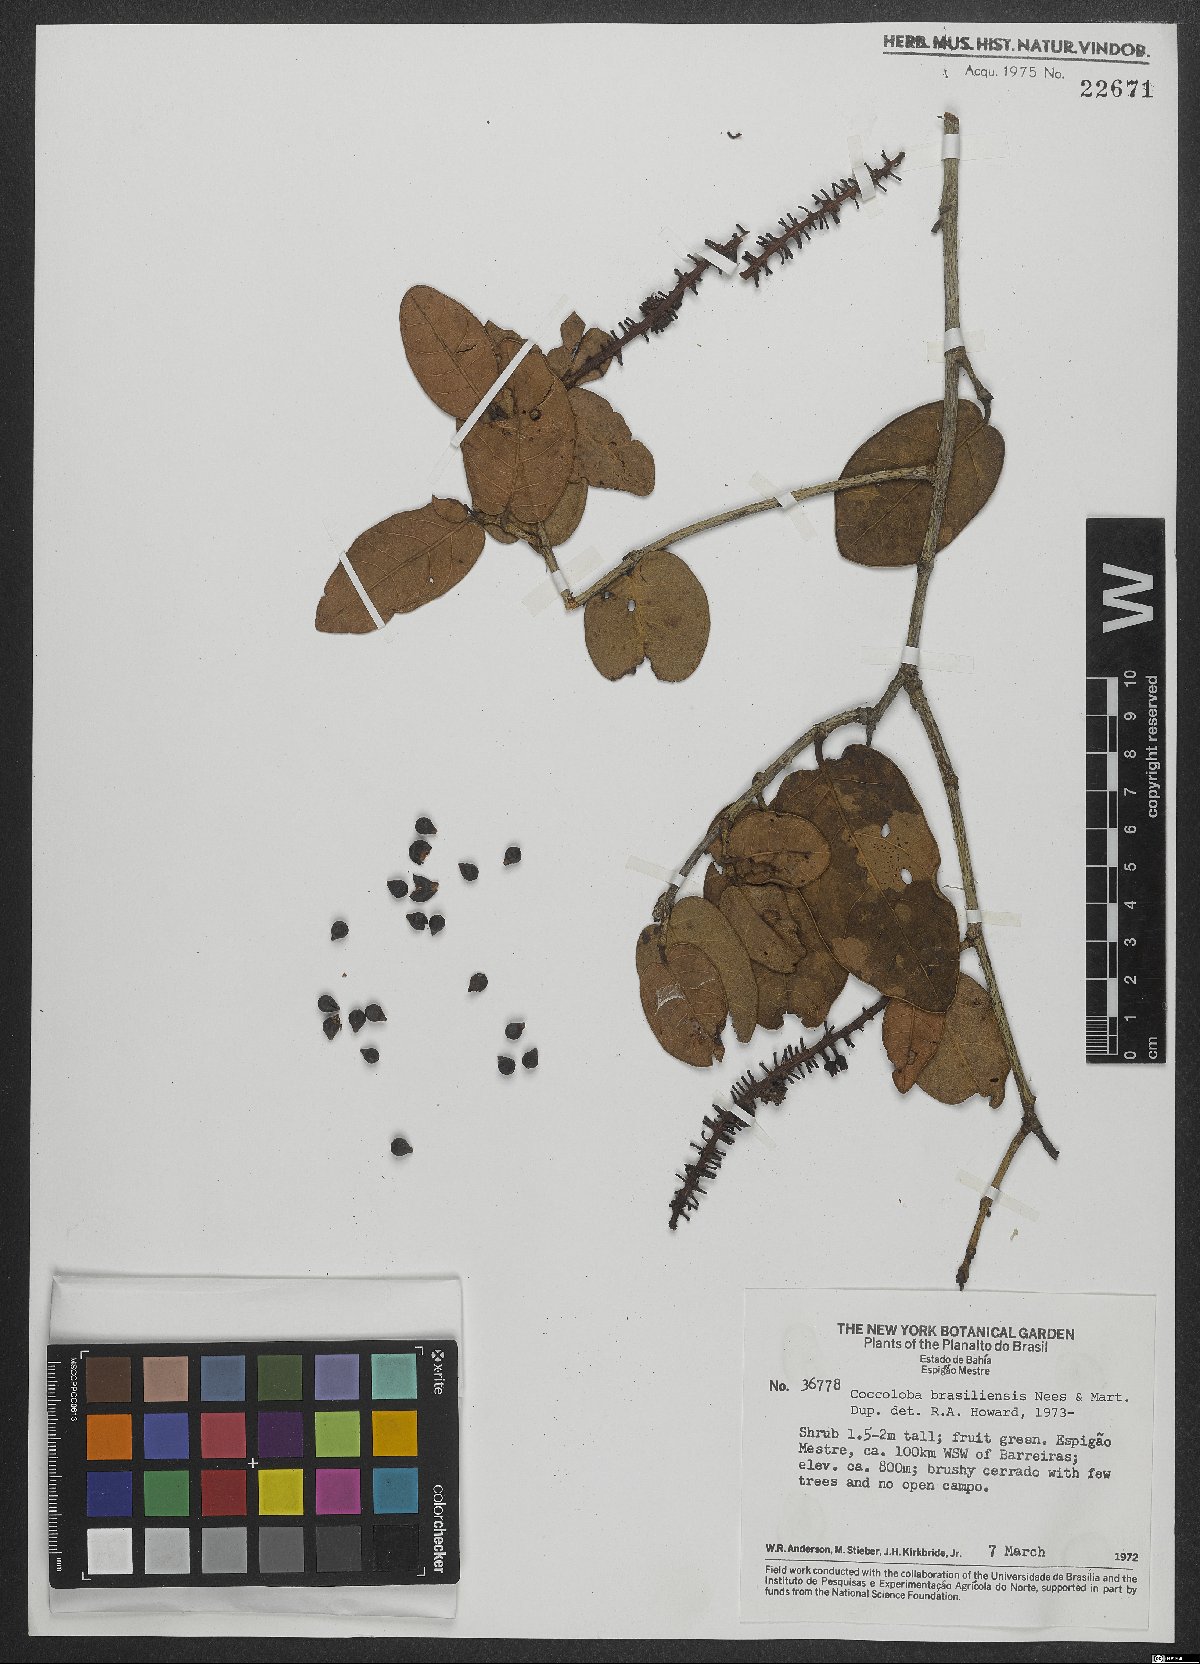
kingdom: Plantae
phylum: Tracheophyta
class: Magnoliopsida
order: Caryophyllales
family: Polygonaceae
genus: Coccoloba
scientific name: Coccoloba brasiliensis
